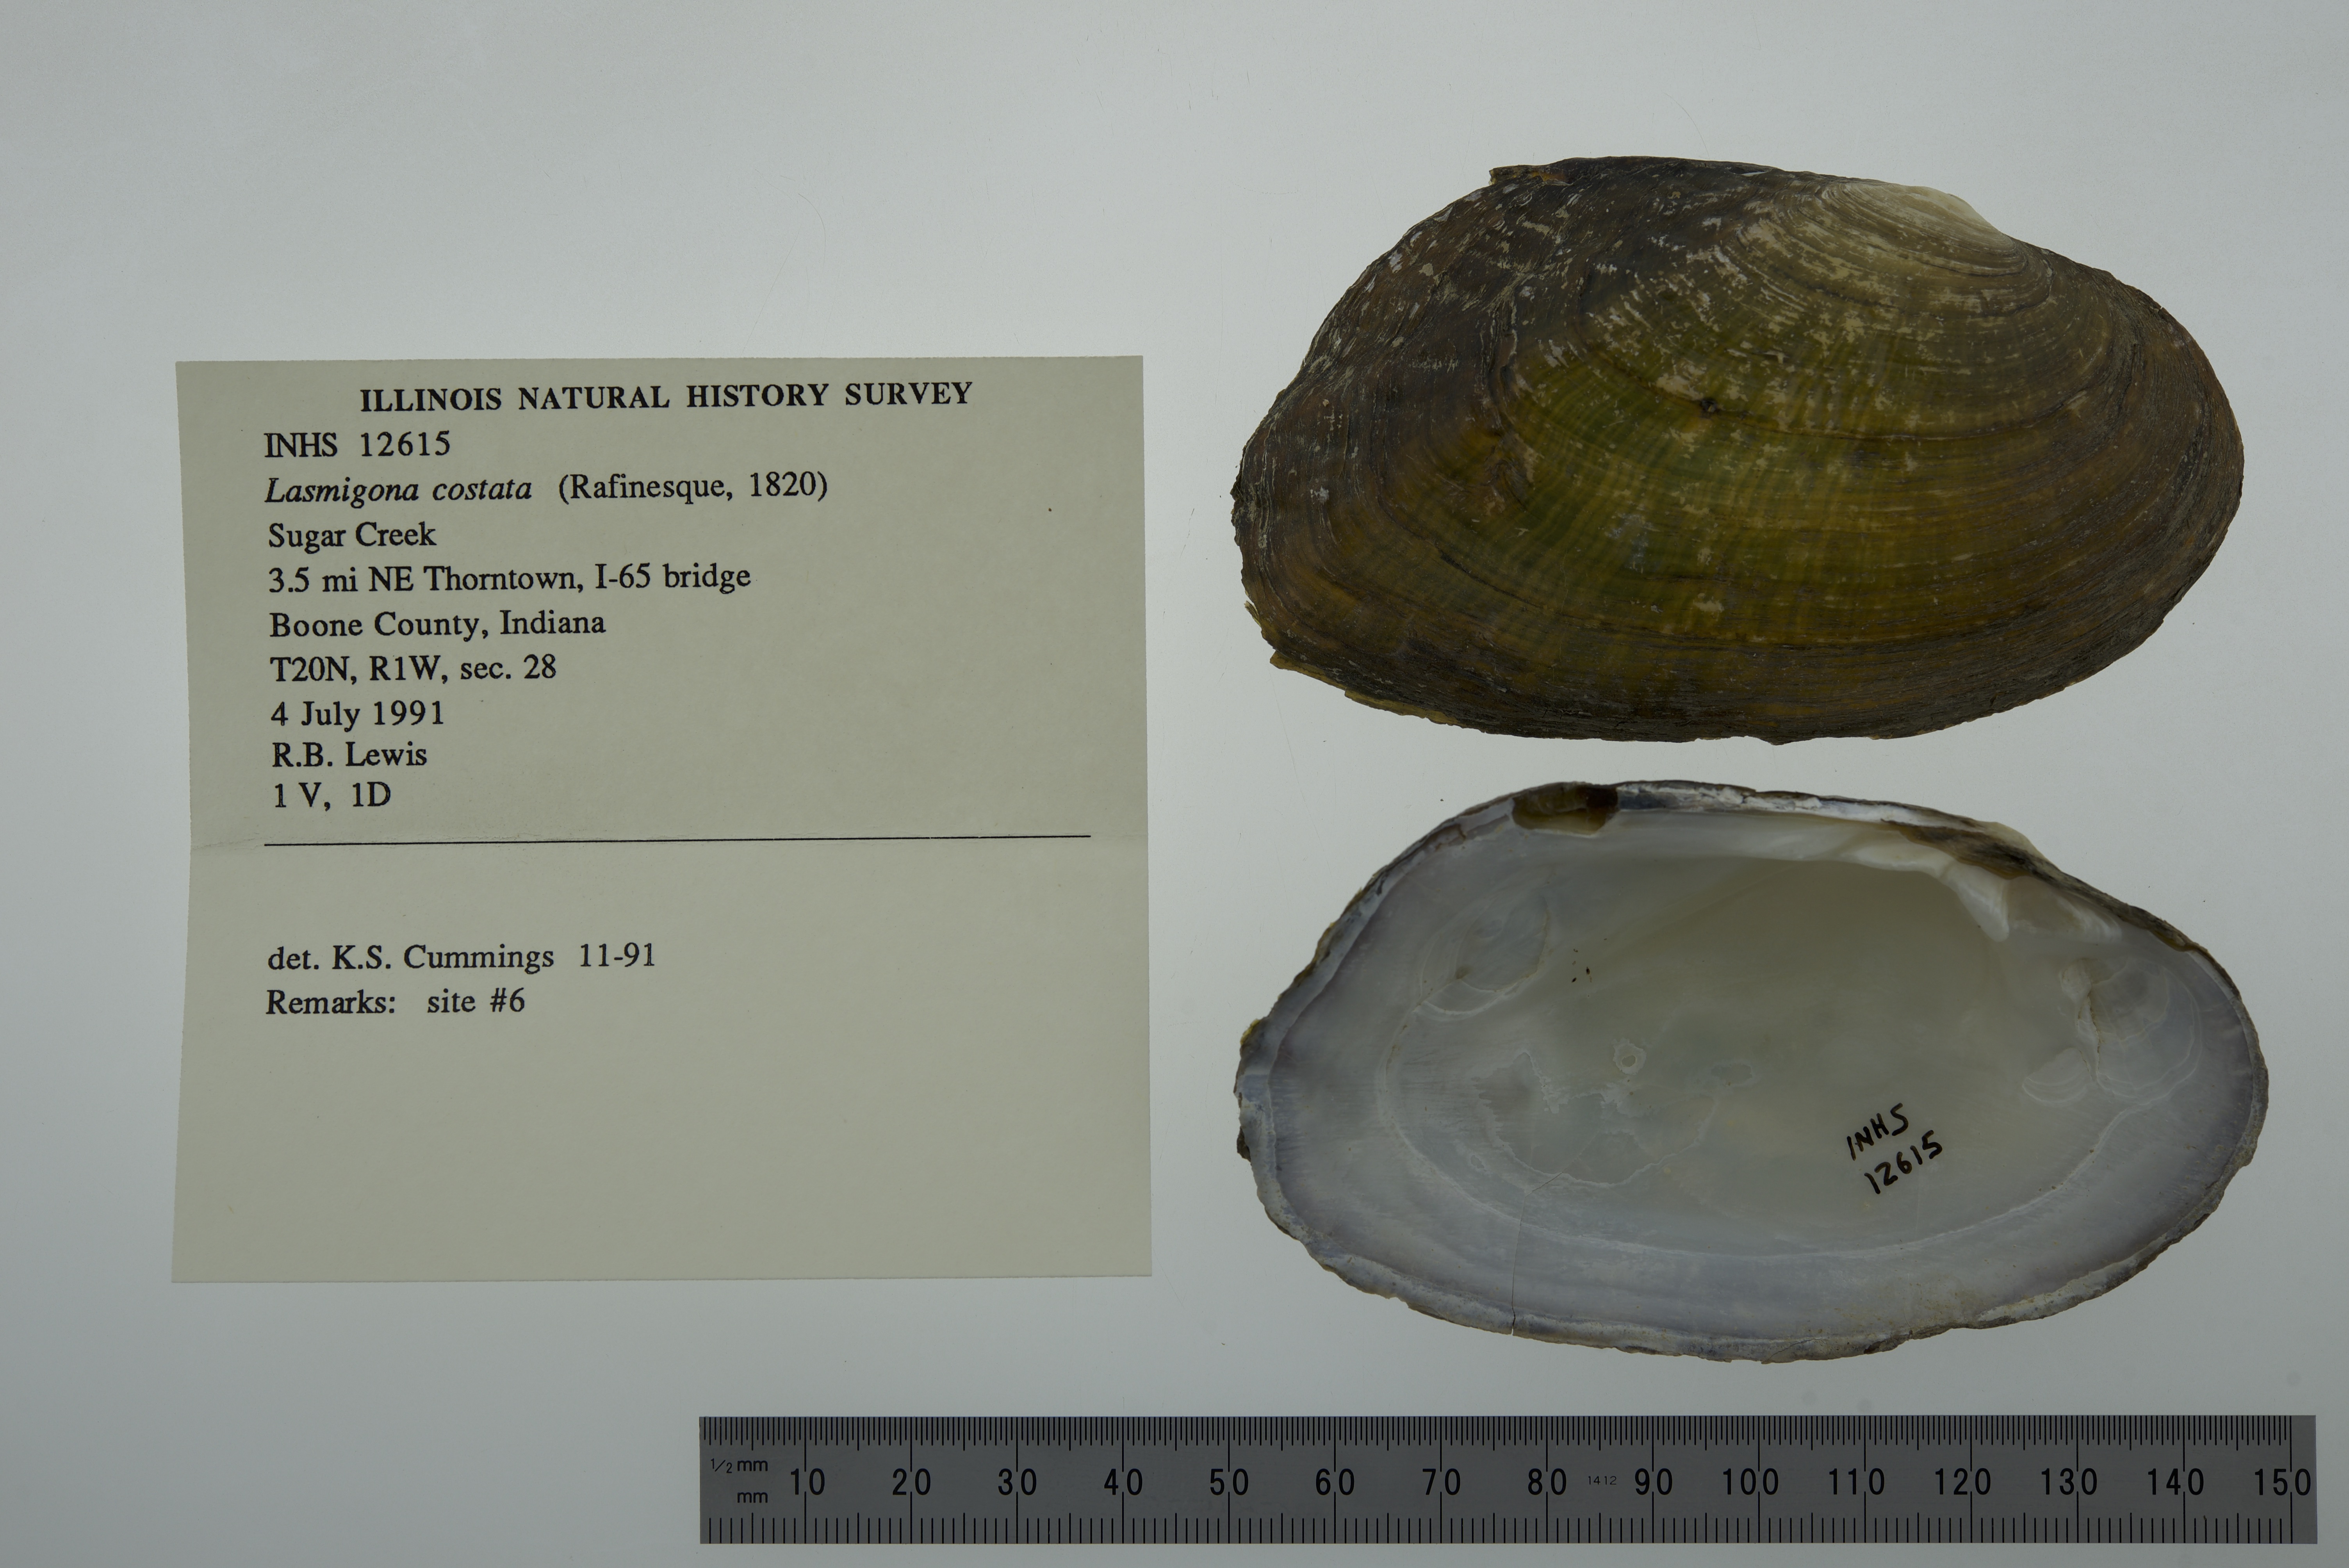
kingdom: Animalia
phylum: Mollusca
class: Bivalvia
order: Unionida
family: Unionidae
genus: Lasmigona
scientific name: Lasmigona costata
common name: Flutedshell
